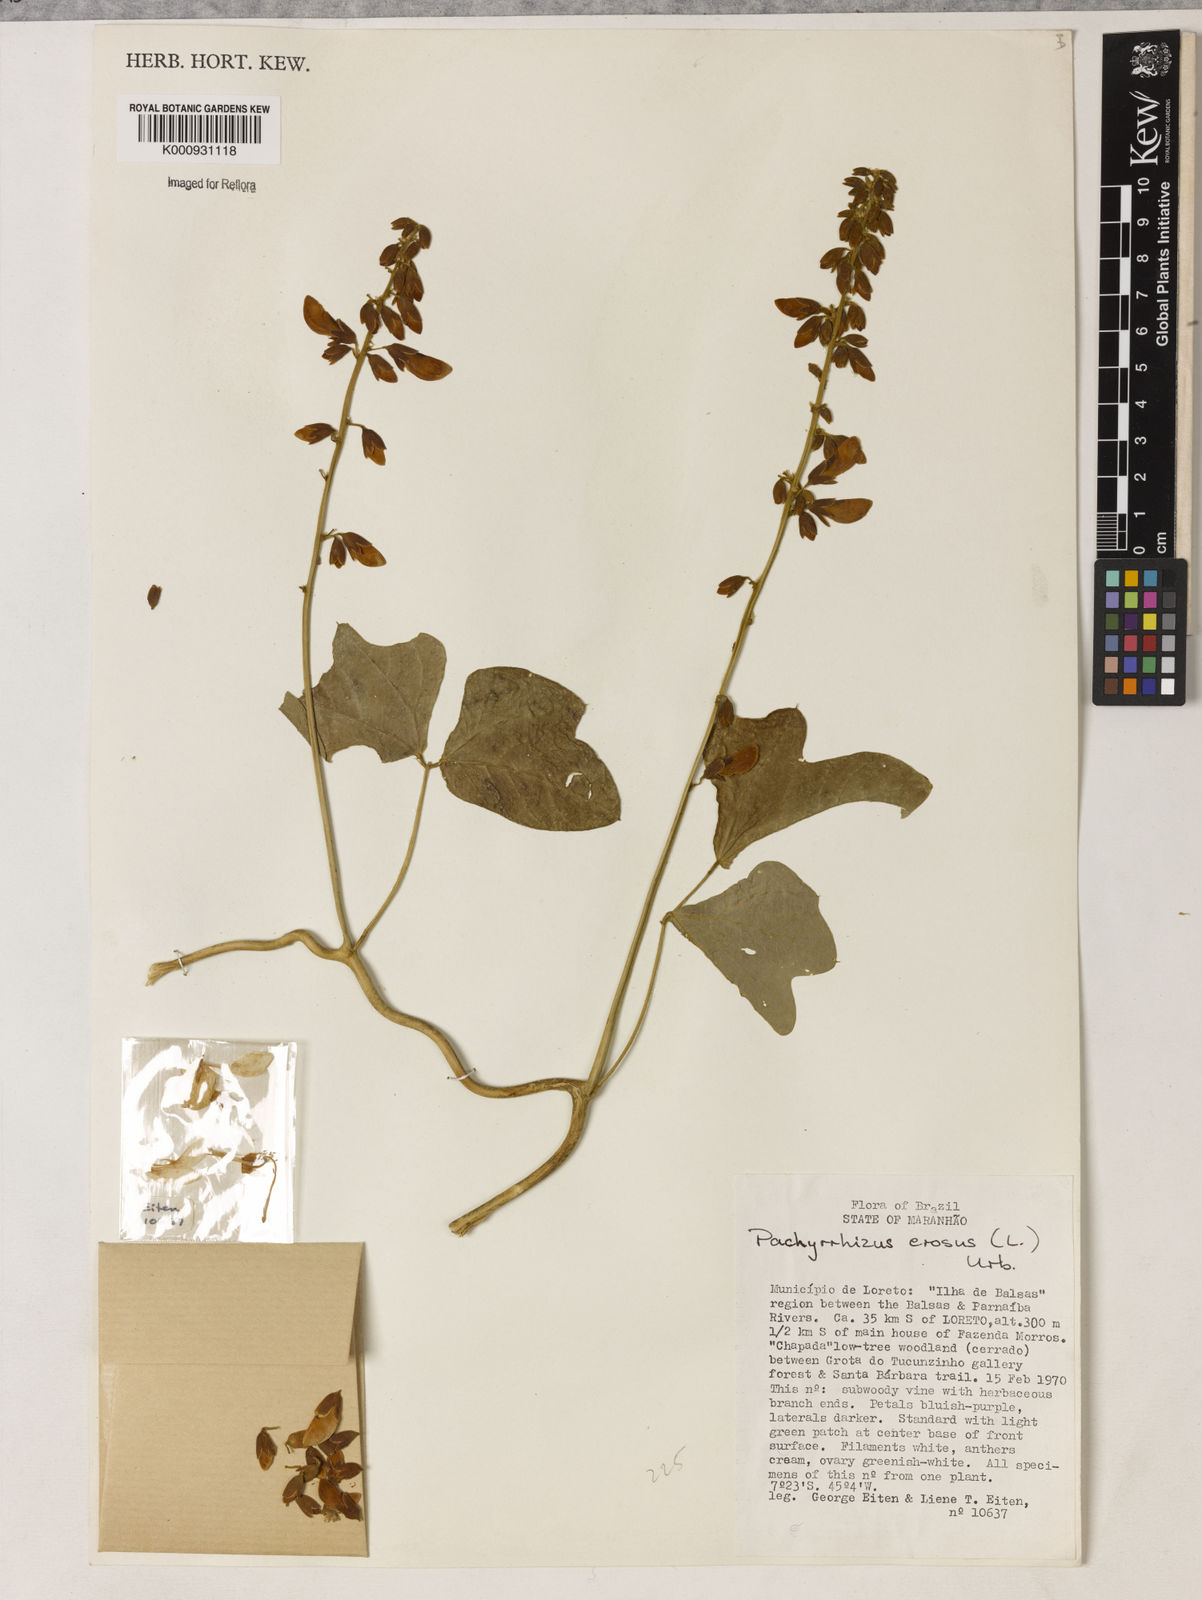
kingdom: Plantae
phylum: Tracheophyta
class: Magnoliopsida
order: Fabales
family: Fabaceae
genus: Pachyrhizus
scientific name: Pachyrhizus erosus
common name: Yam bean
